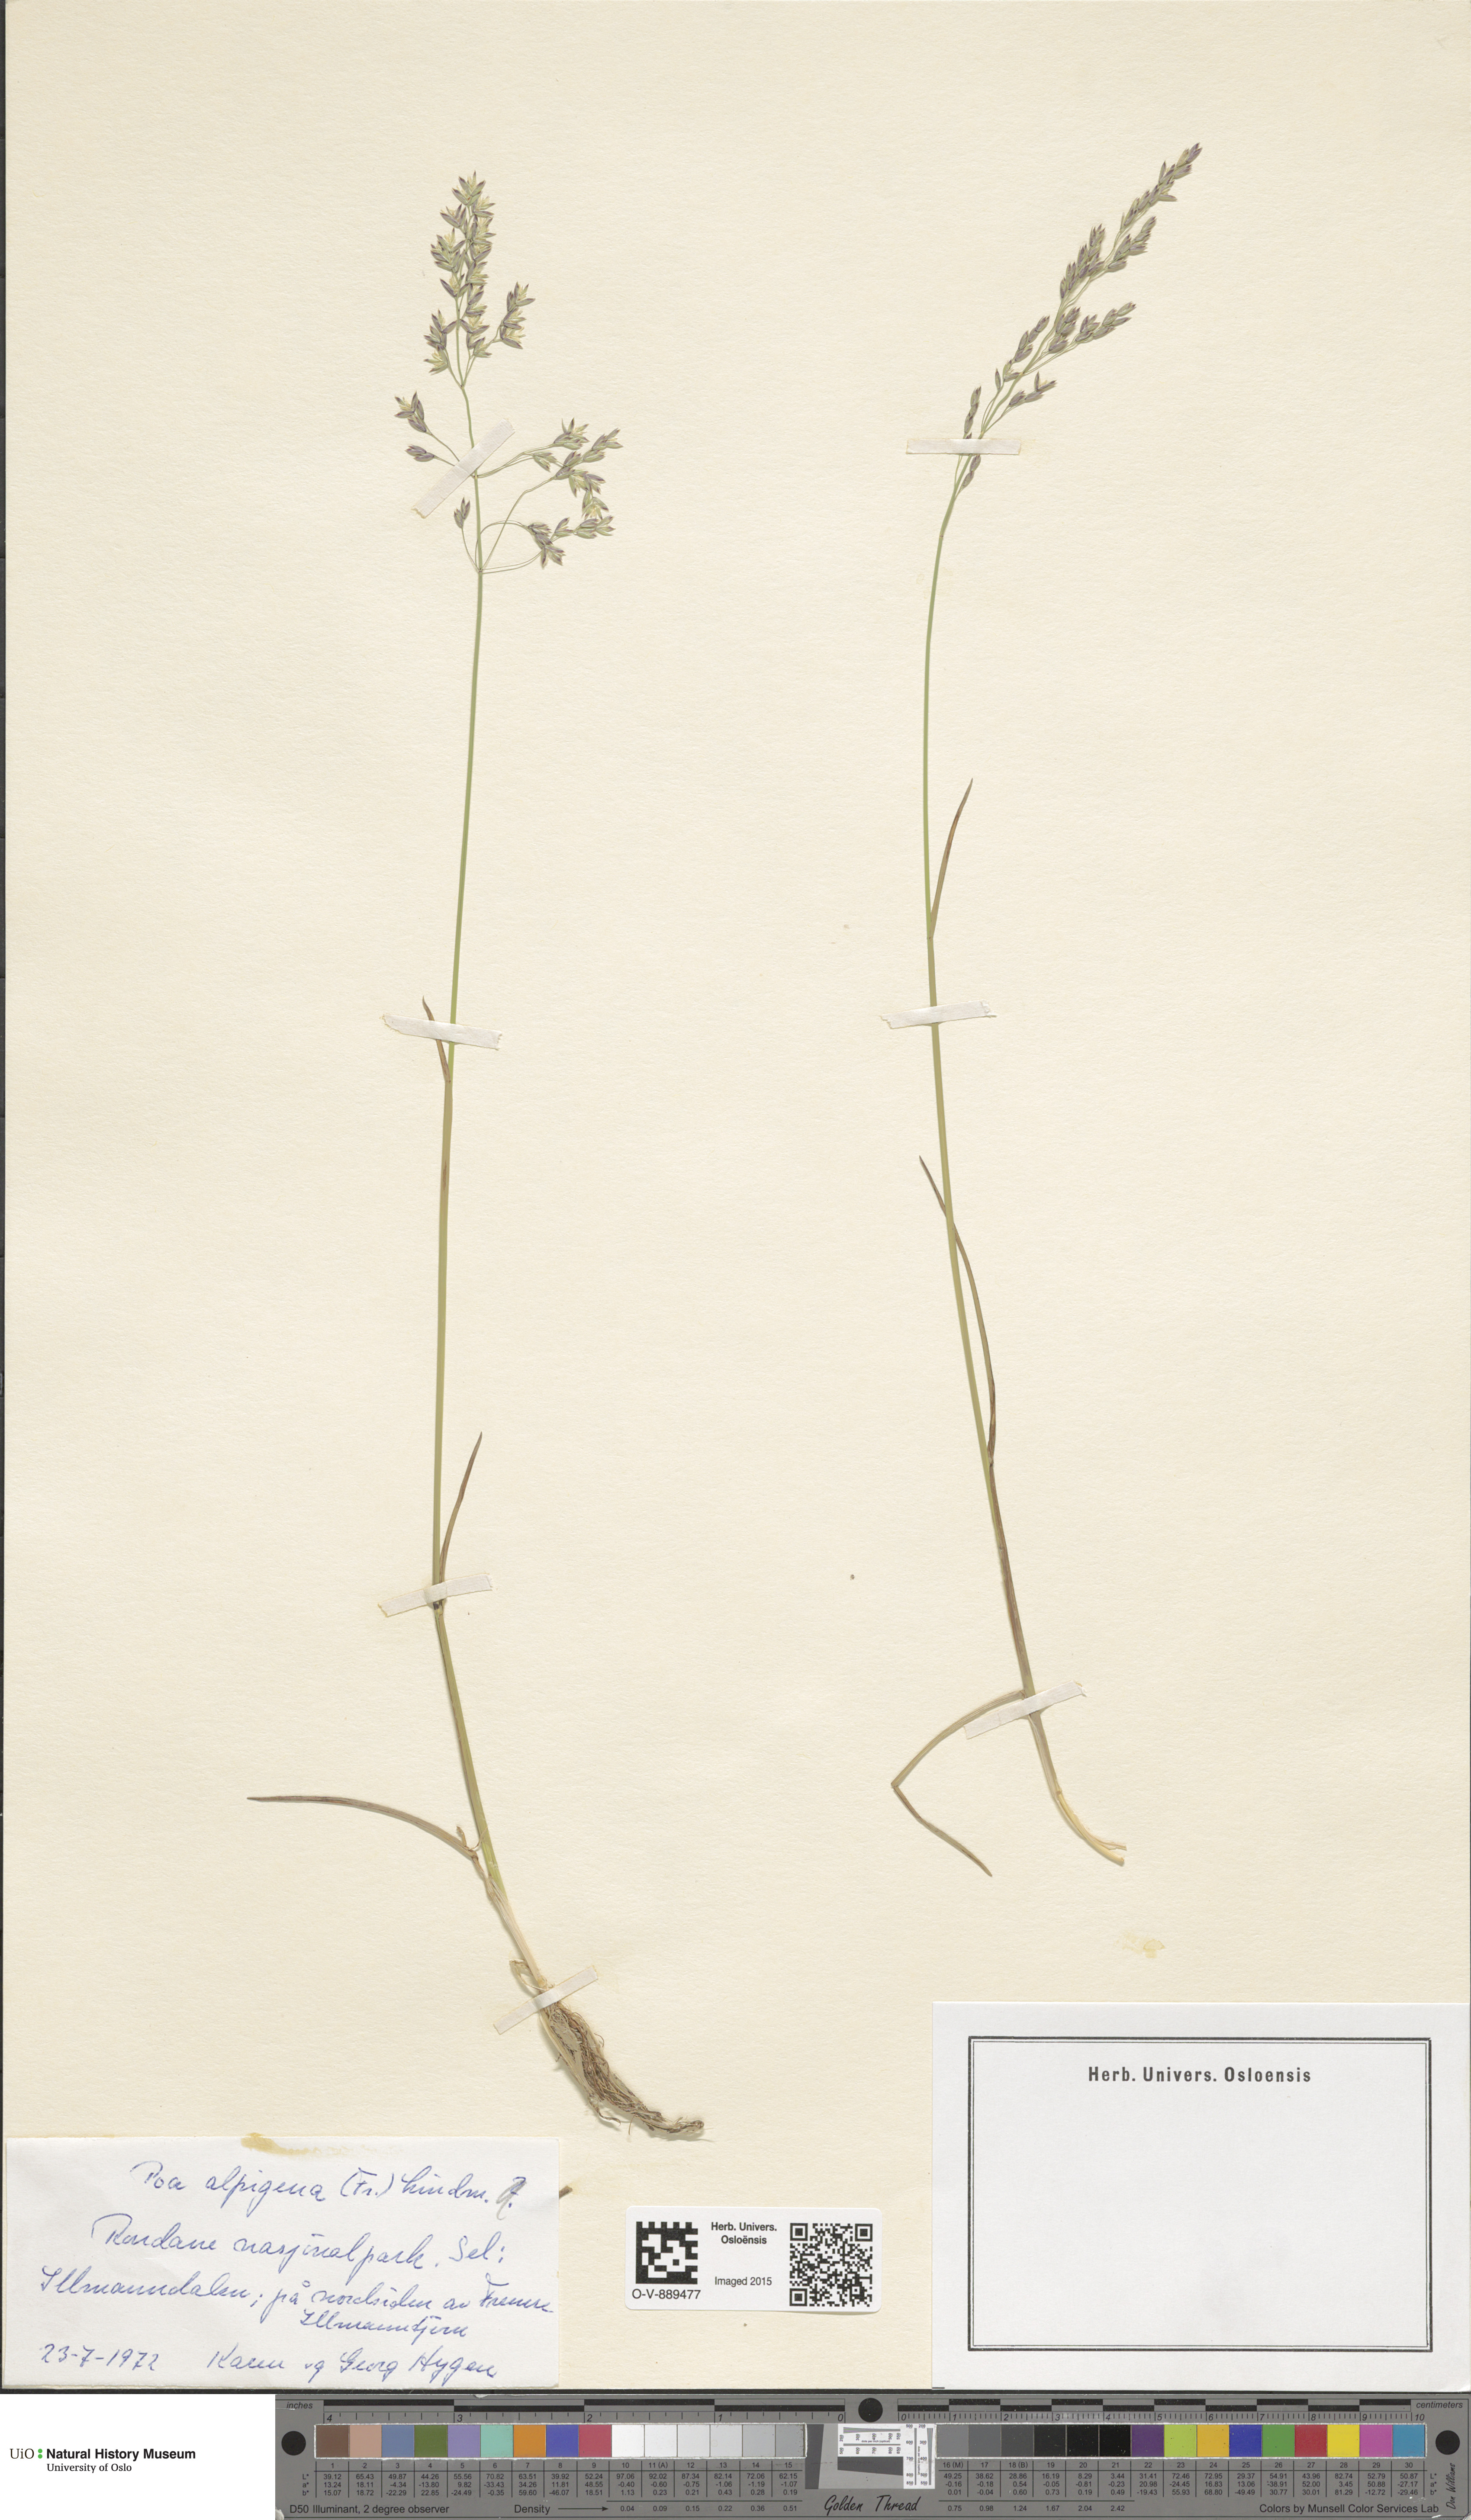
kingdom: Plantae
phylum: Tracheophyta
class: Liliopsida
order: Poales
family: Poaceae
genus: Poa
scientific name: Poa alpigena
